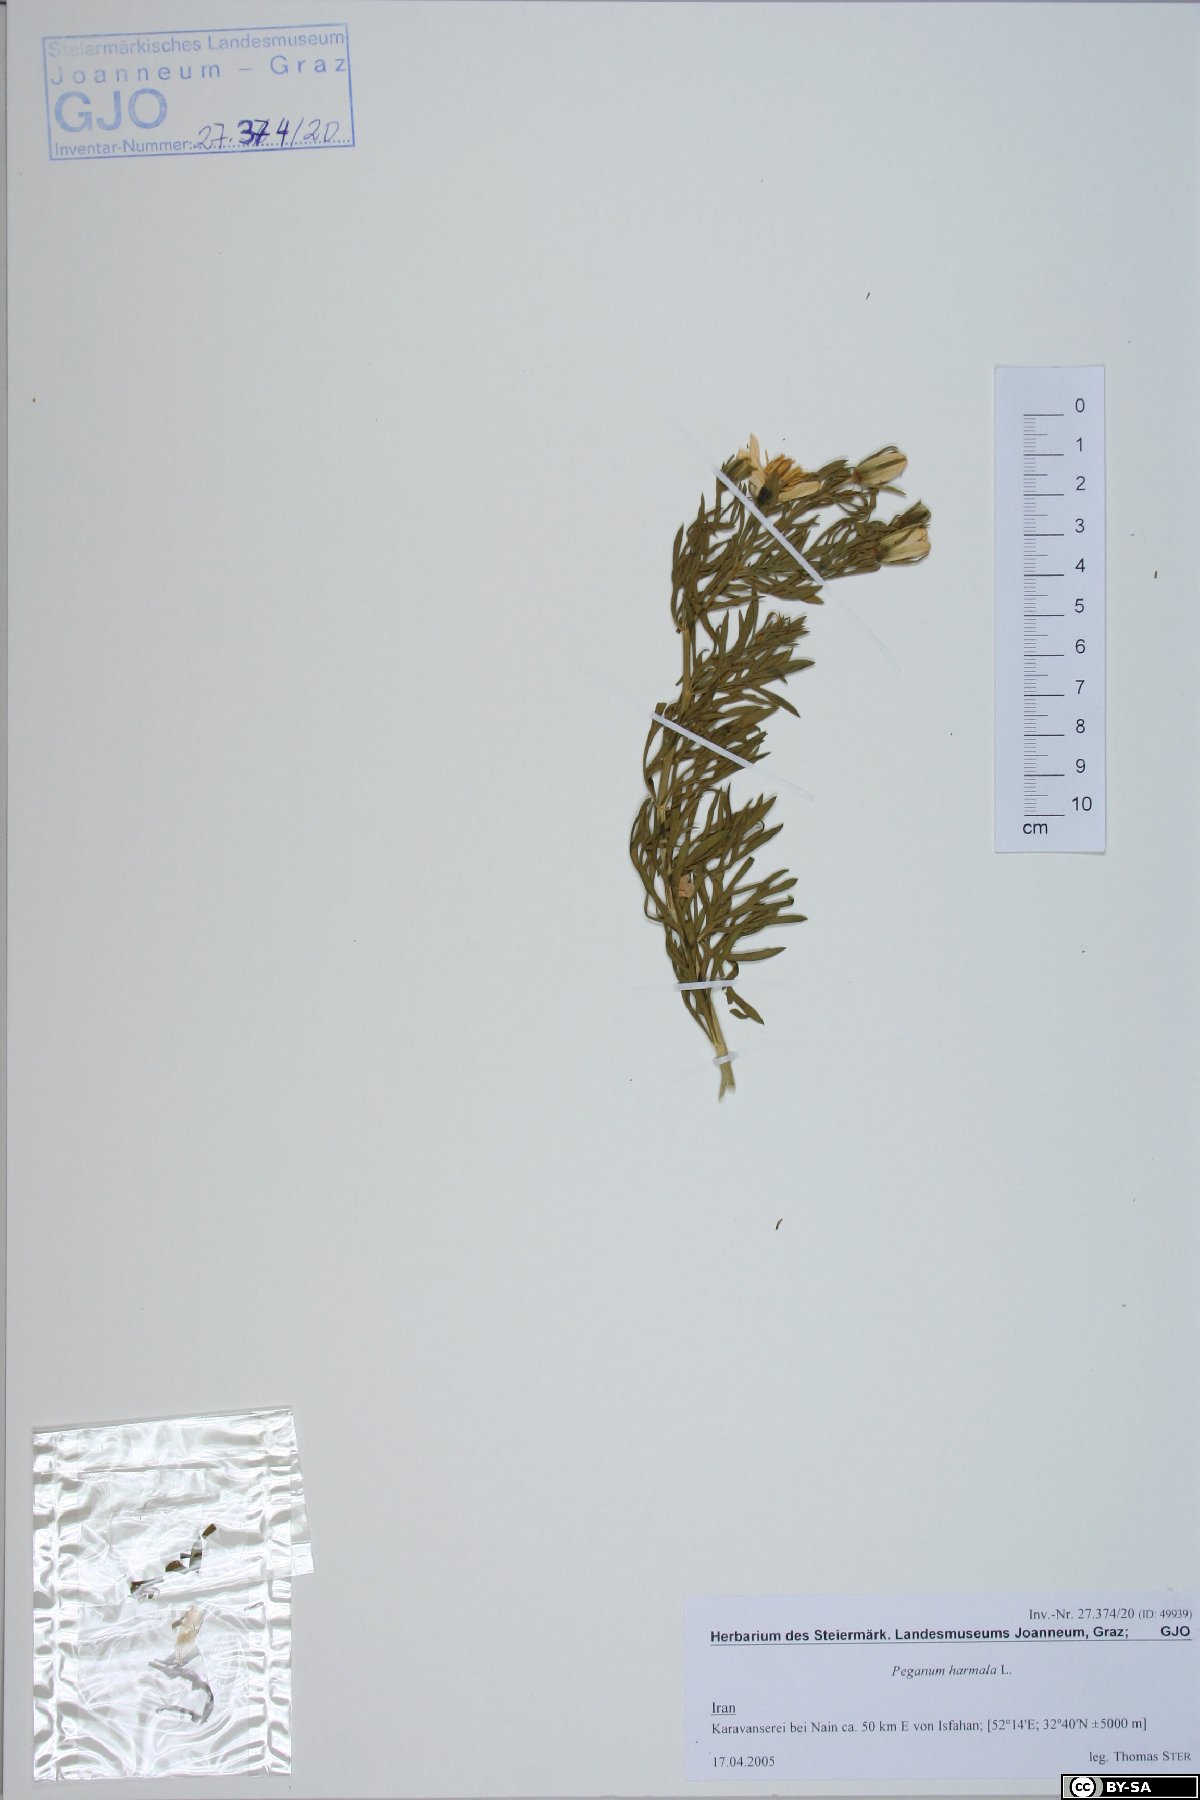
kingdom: Plantae
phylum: Tracheophyta
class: Magnoliopsida
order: Sapindales
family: Tetradiclidaceae
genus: Peganum
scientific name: Peganum harmala
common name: Harmal peganum
